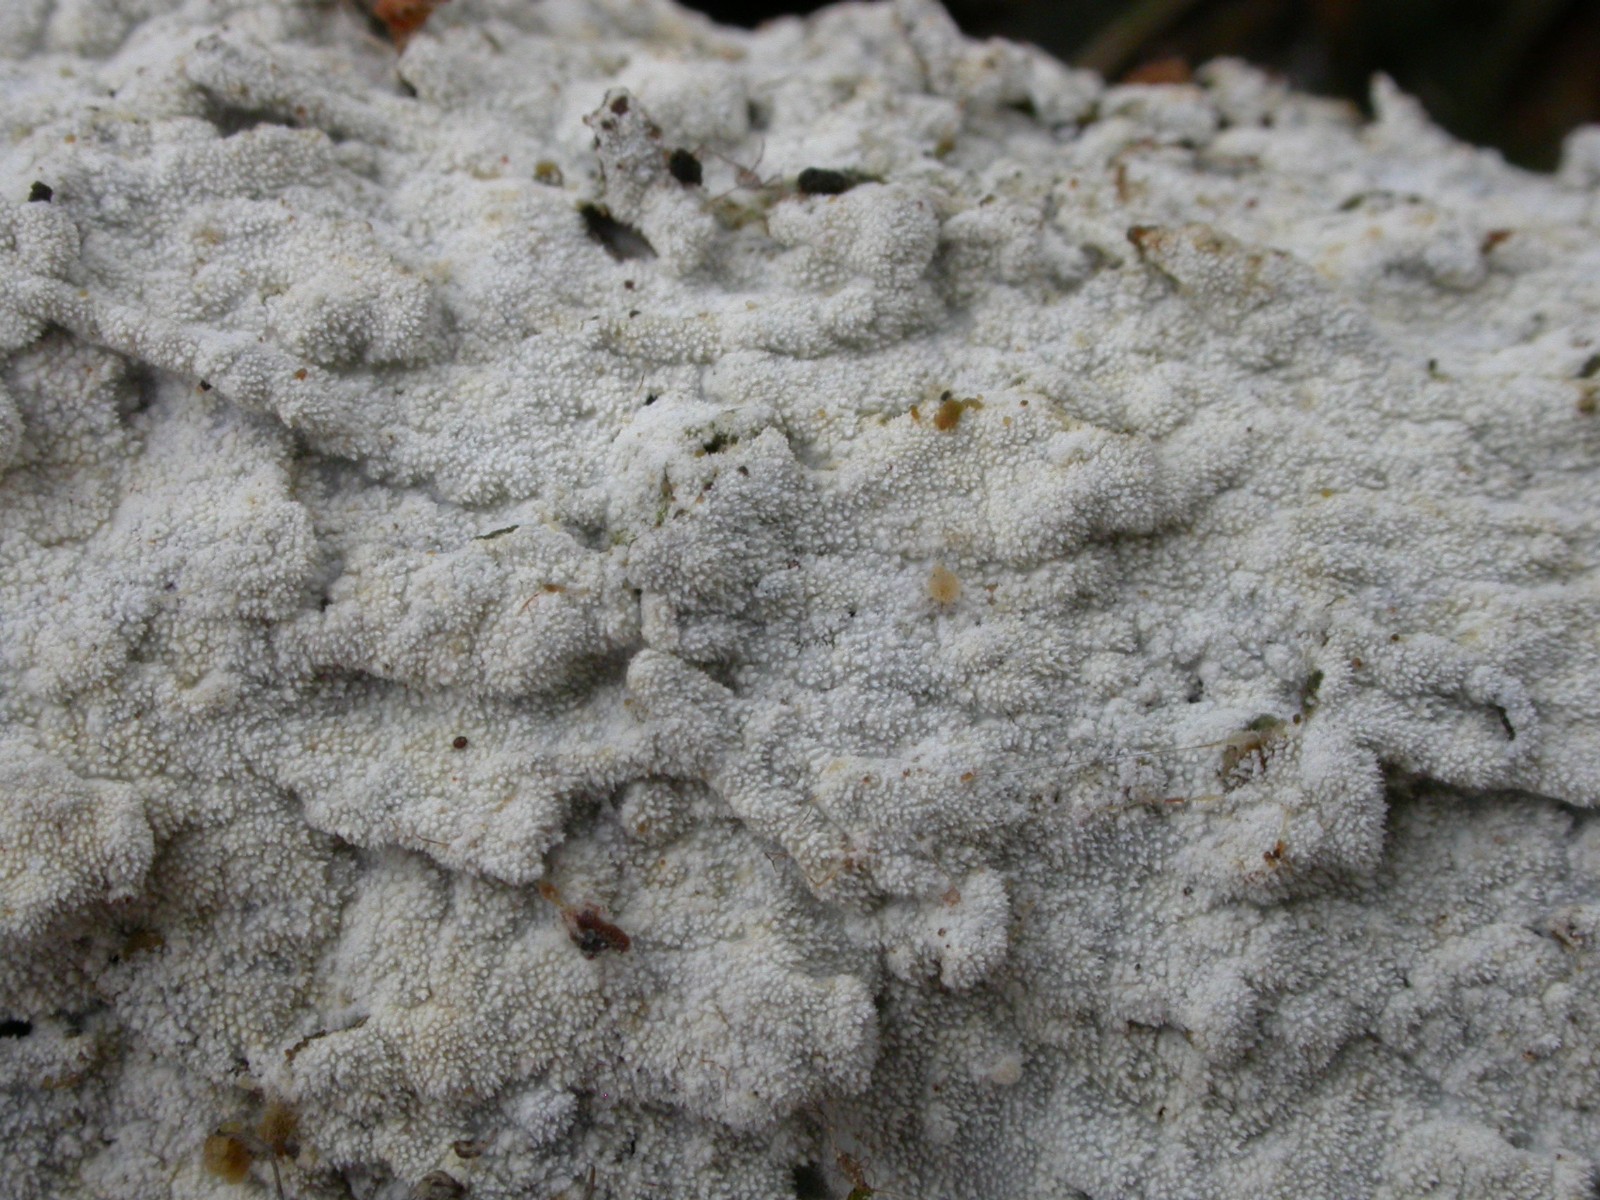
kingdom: Fungi
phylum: Basidiomycota
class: Agaricomycetes
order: Hymenochaetales
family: Schizoporaceae
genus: Xylodon
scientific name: Xylodon brevisetus
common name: tætvortet tandsvamp
